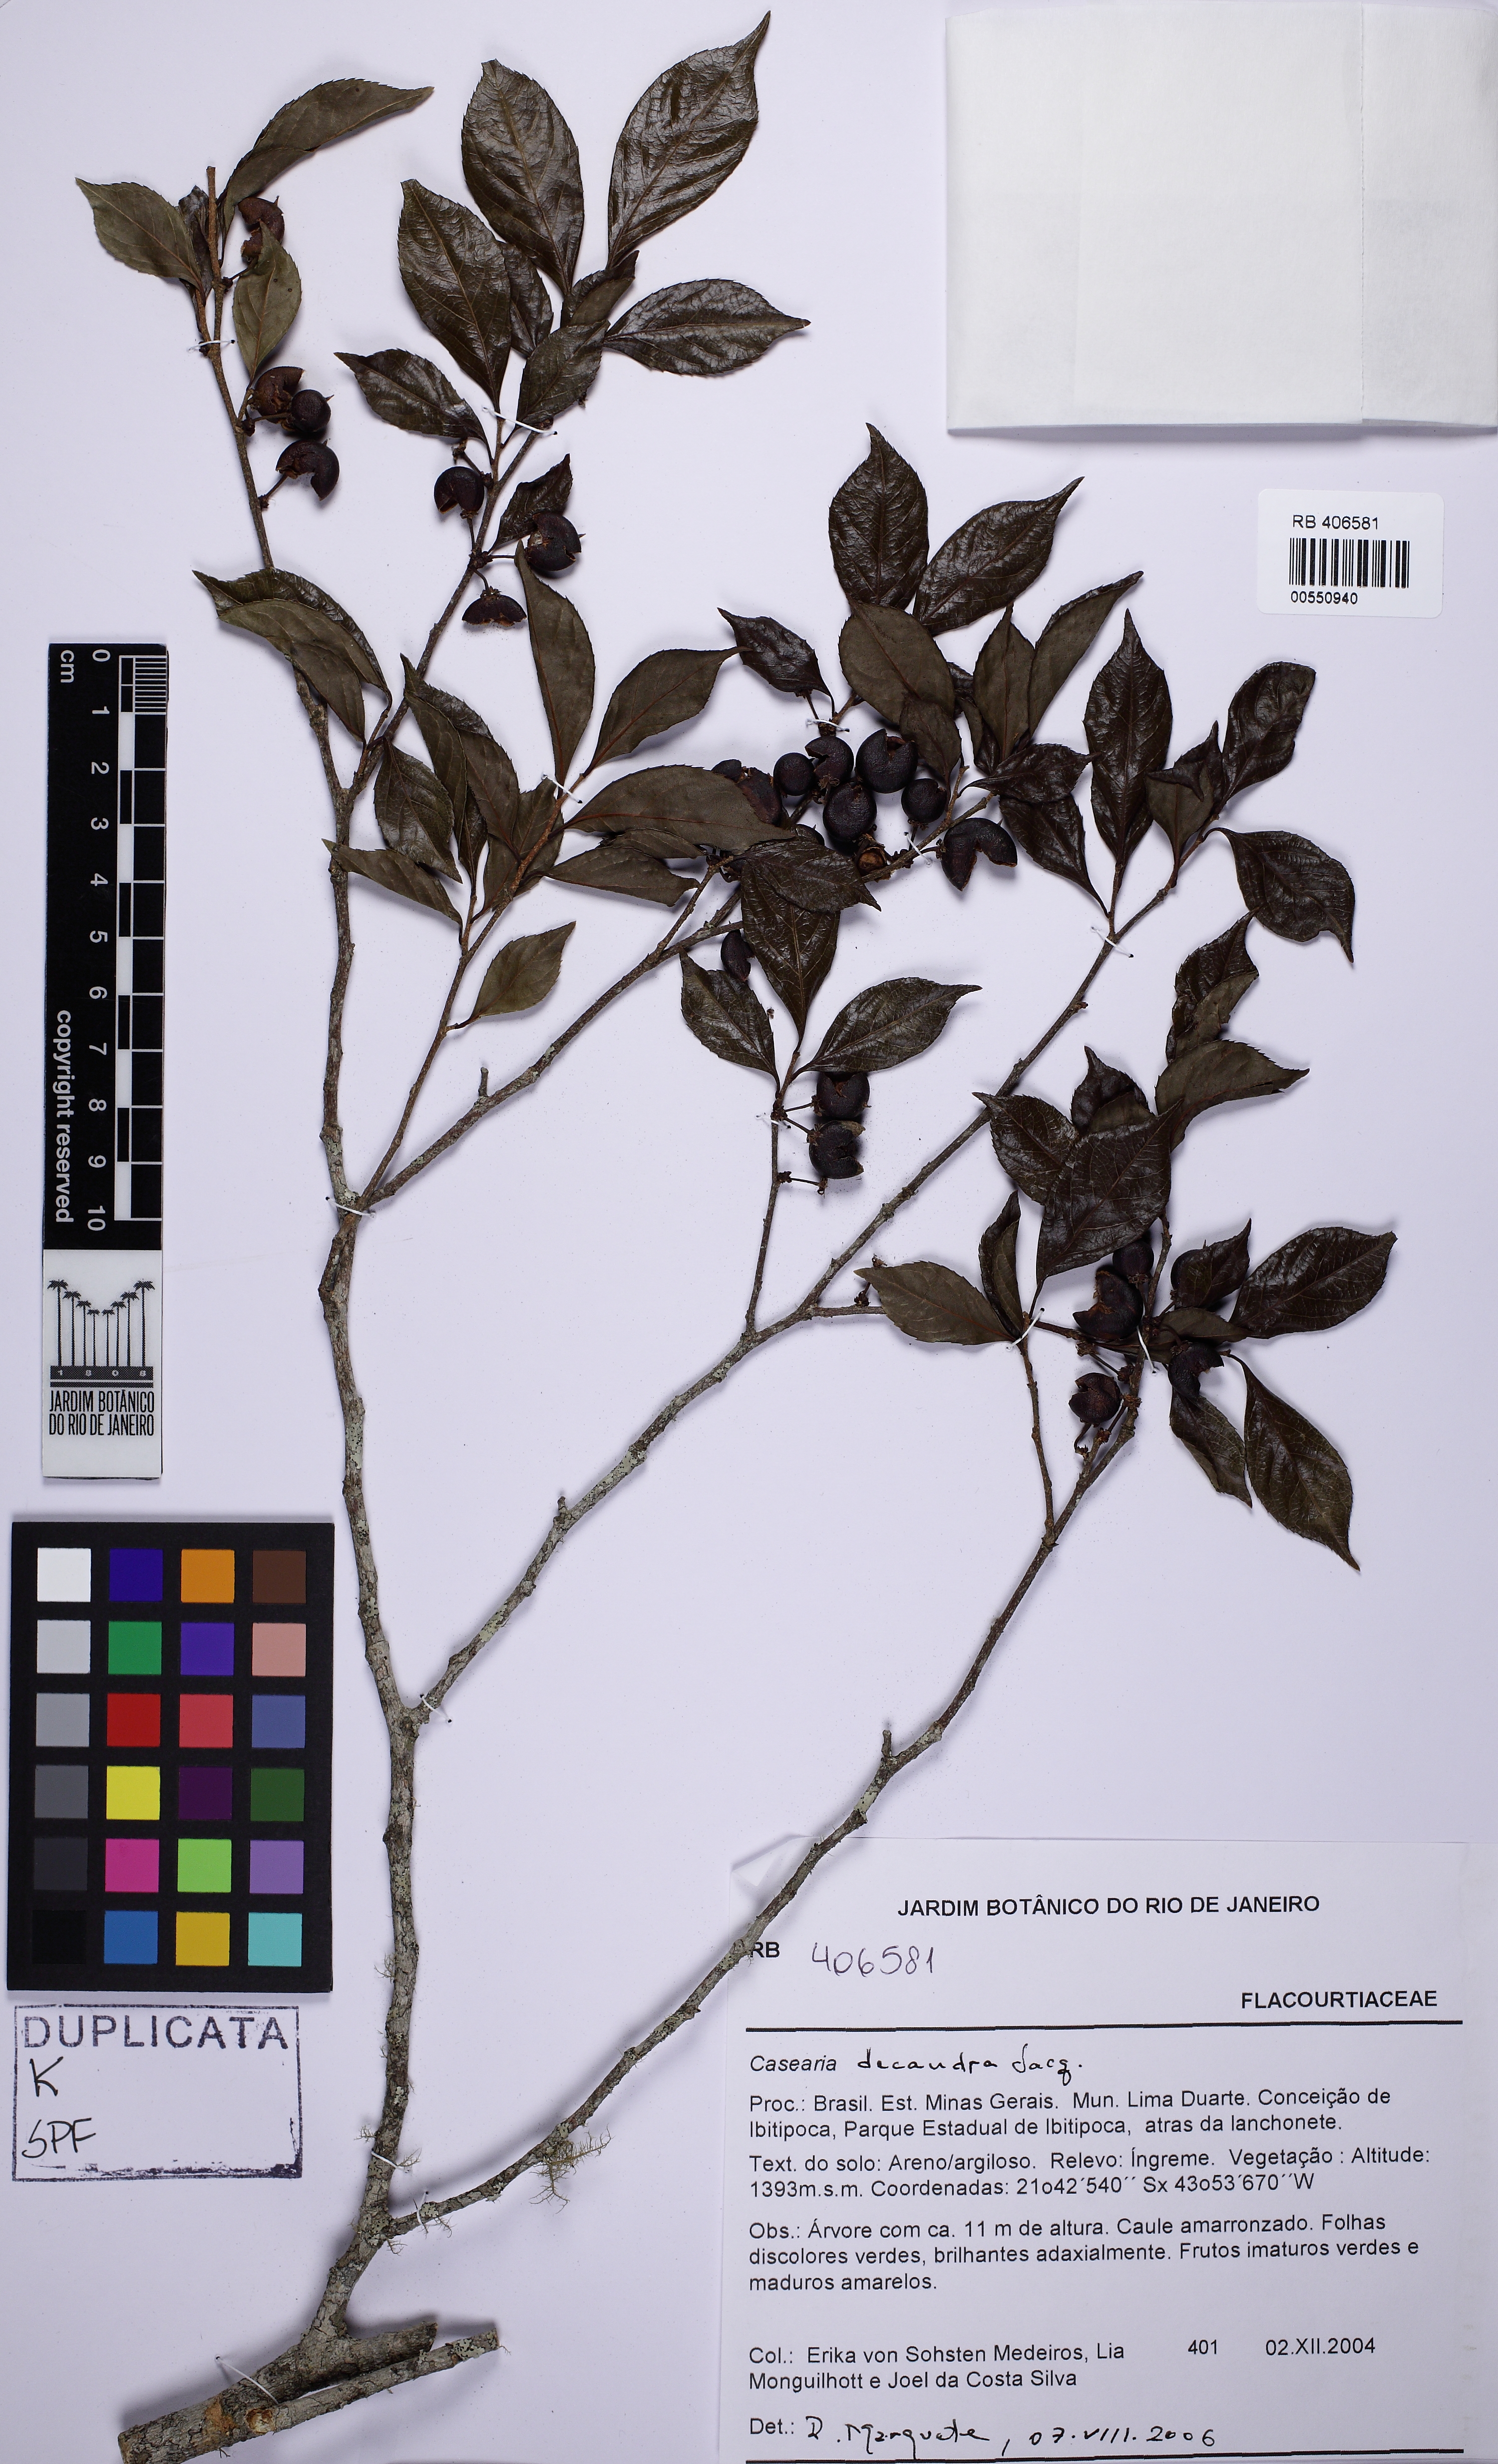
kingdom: Plantae
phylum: Tracheophyta
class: Magnoliopsida
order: Malpighiales
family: Salicaceae
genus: Casearia
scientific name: Casearia decandra
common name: Crack open
